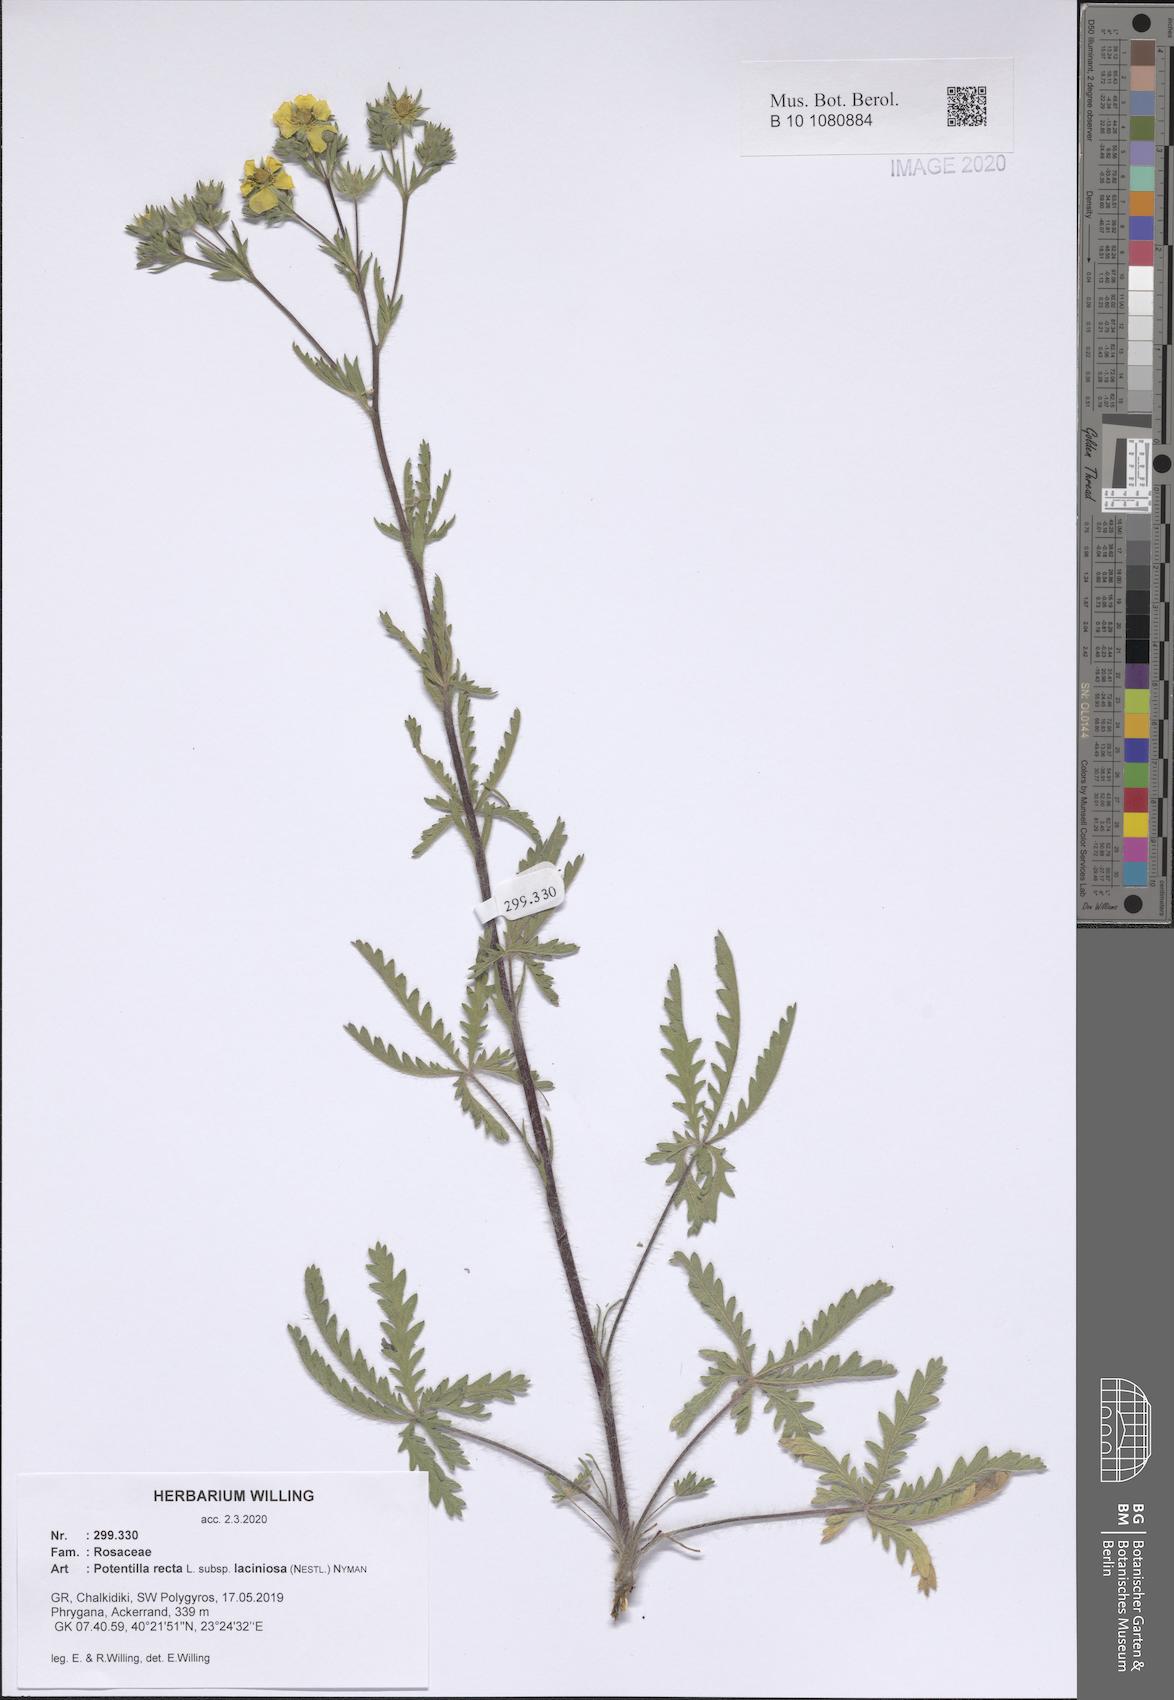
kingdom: Plantae
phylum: Tracheophyta
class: Magnoliopsida
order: Rosales
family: Rosaceae
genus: Potentilla
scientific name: Potentilla recta
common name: Sulphur cinquefoil
